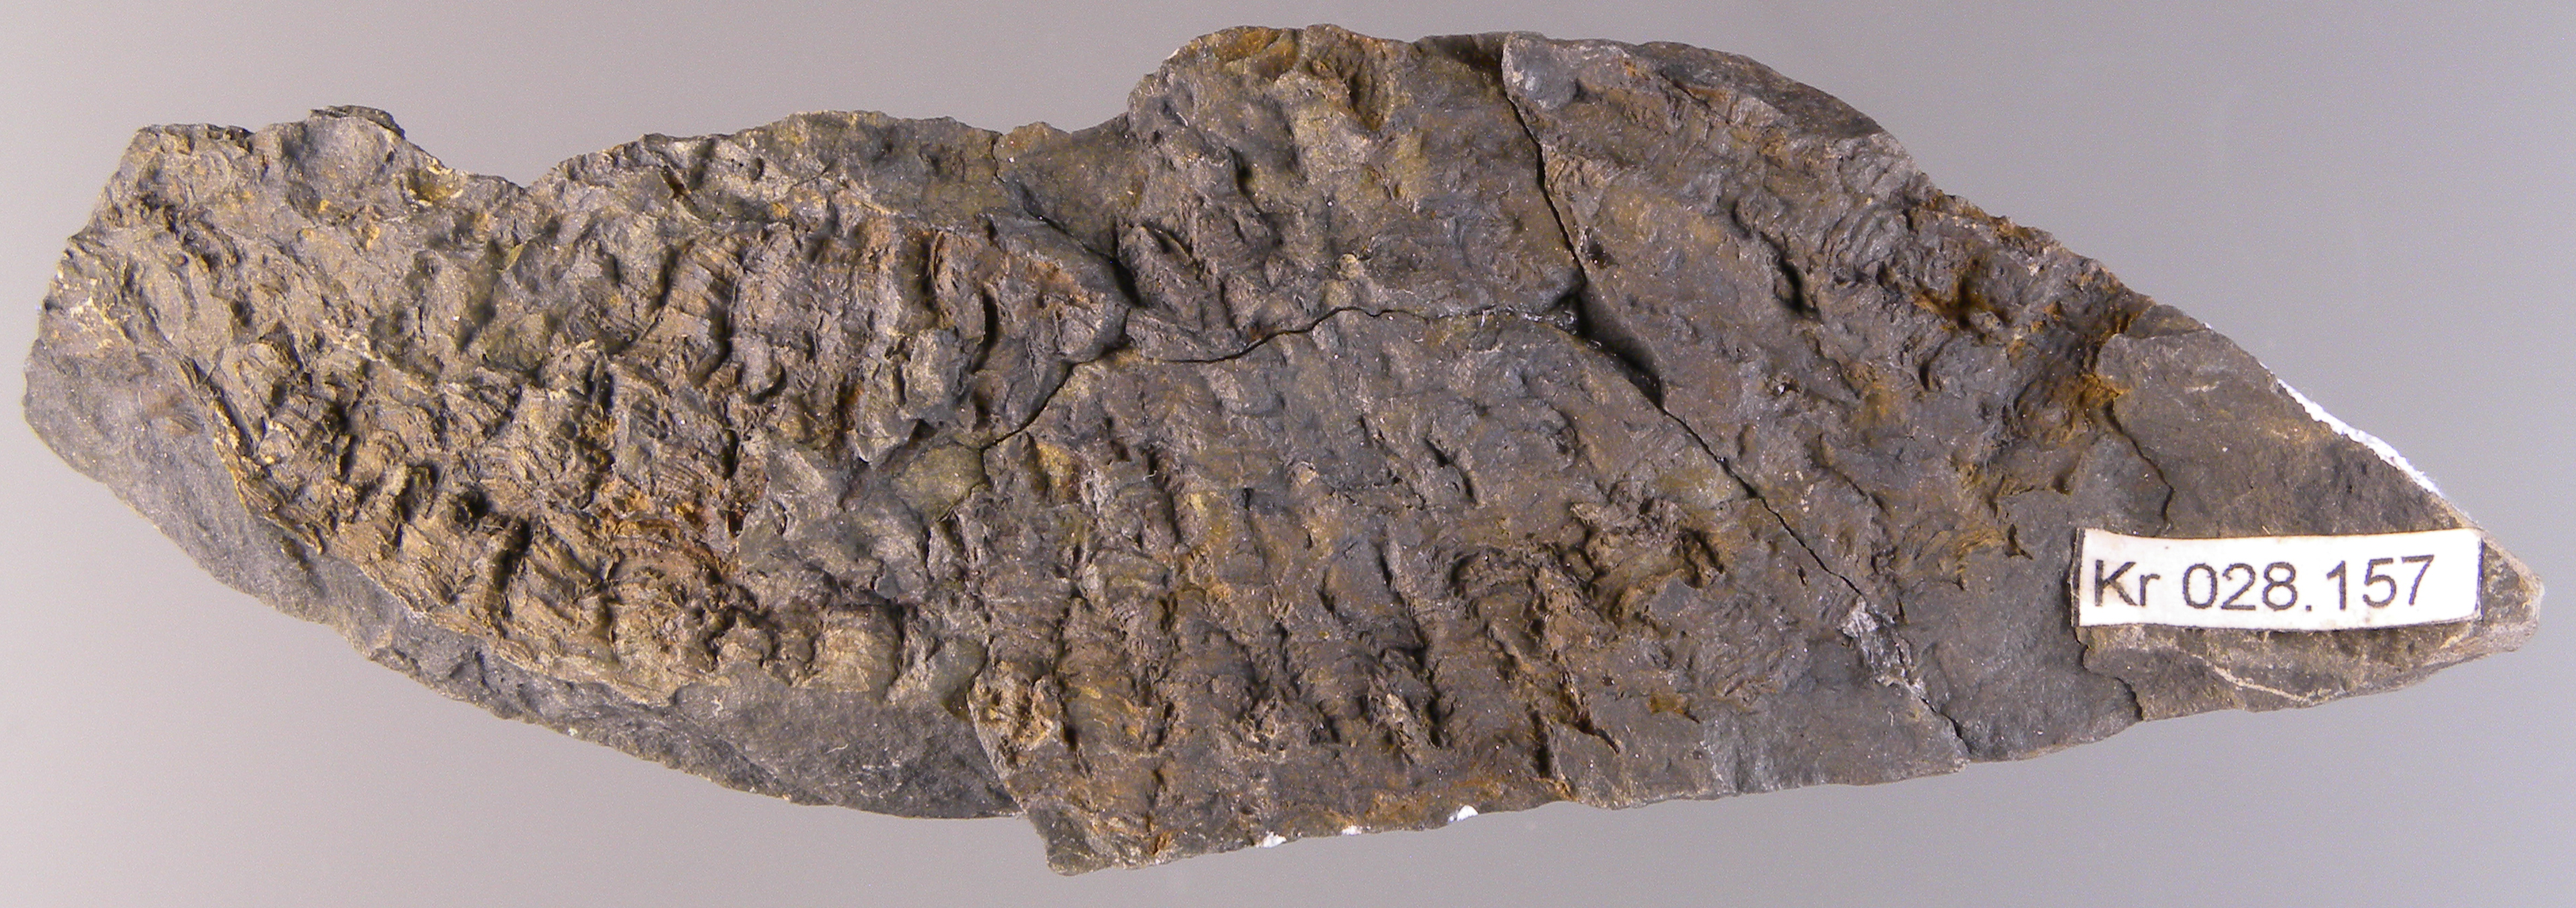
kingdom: Animalia
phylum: Cnidaria
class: Anthozoa
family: Micheliniidae
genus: Pleurodictyum
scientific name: Pleurodictyum
